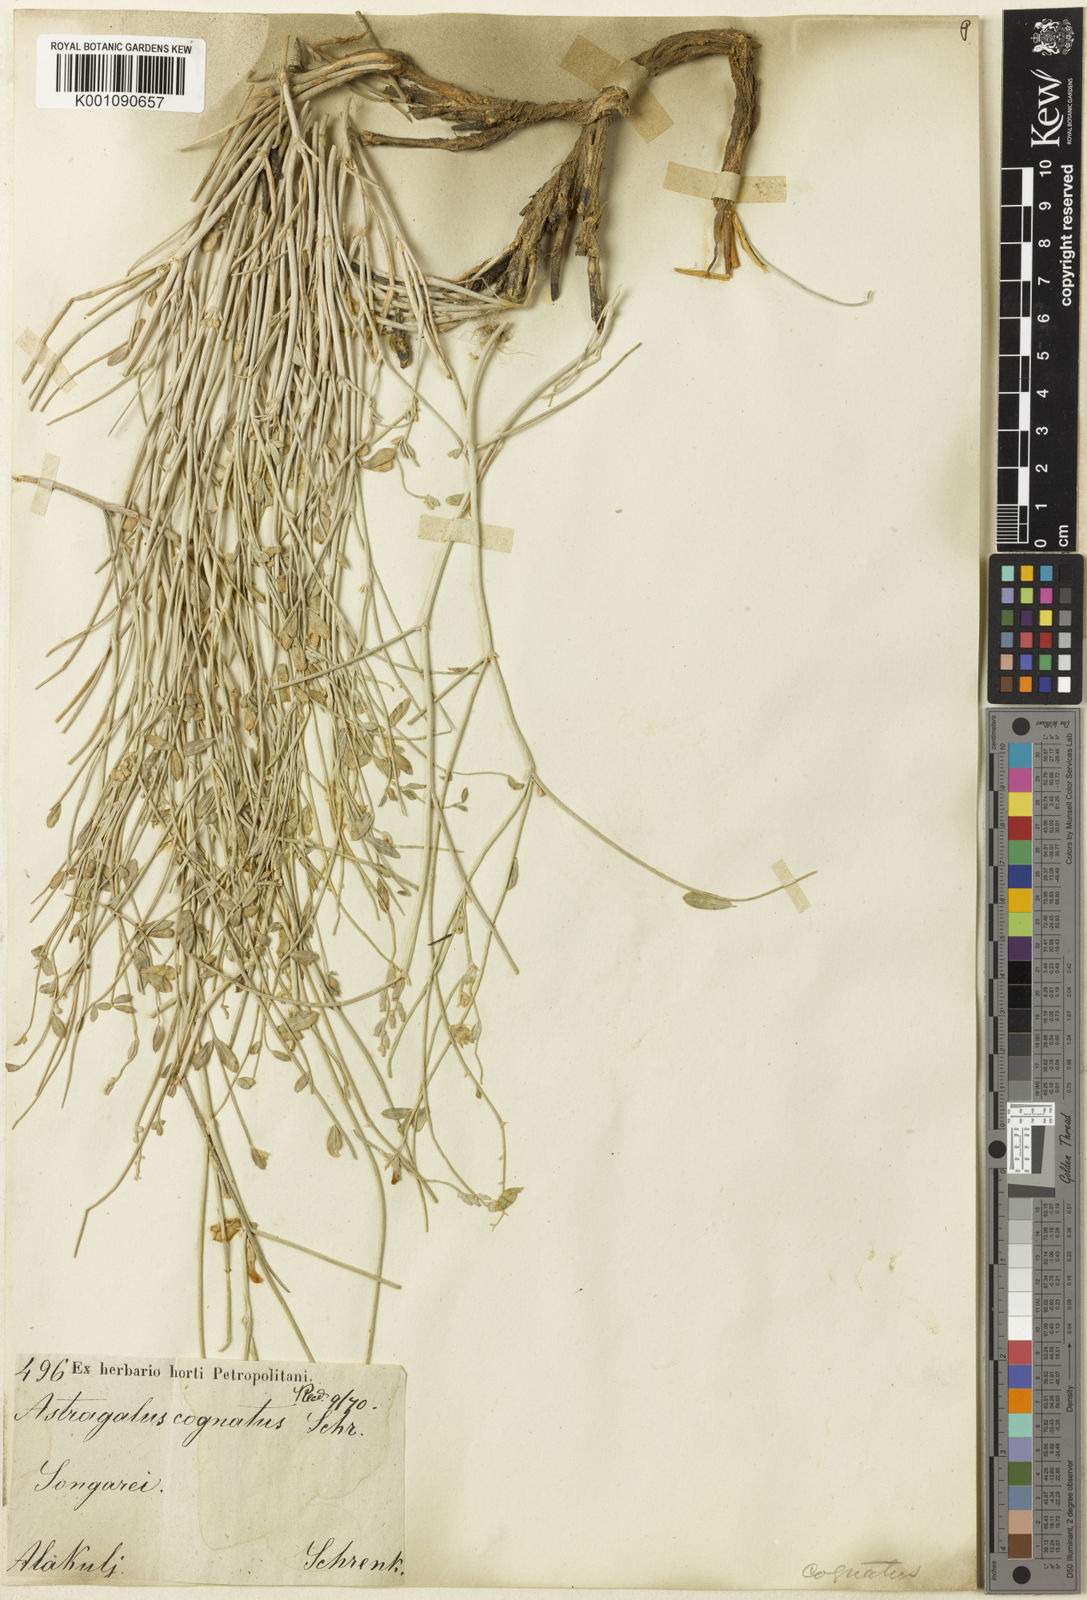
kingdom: Plantae
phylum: Tracheophyta
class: Magnoliopsida
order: Fabales
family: Fabaceae
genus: Astragalus
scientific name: Astragalus
